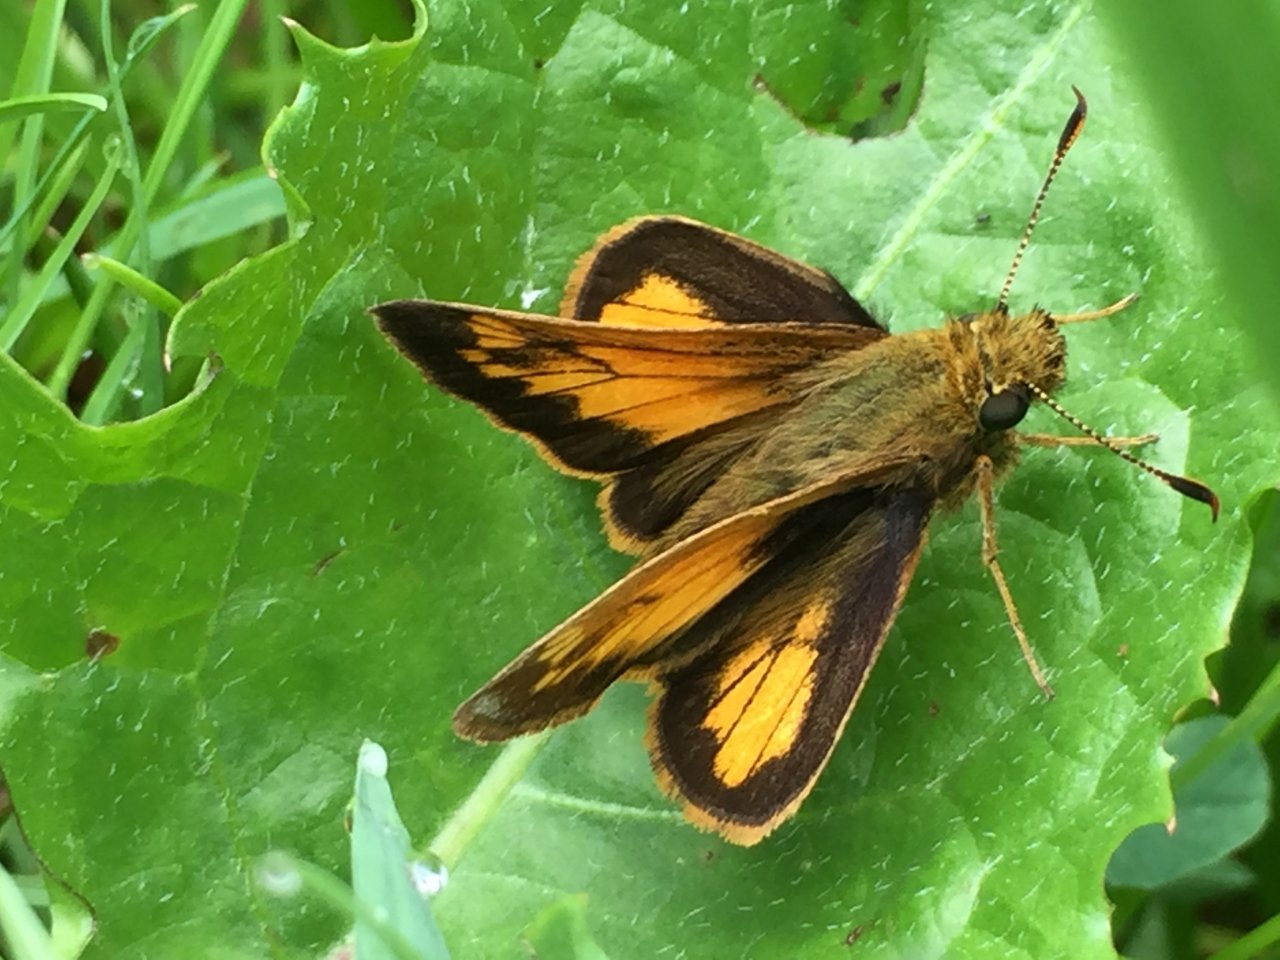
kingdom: Animalia
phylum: Arthropoda
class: Insecta
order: Lepidoptera
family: Hesperiidae
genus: Lon
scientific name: Lon hobomok
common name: Hobomok Skipper
